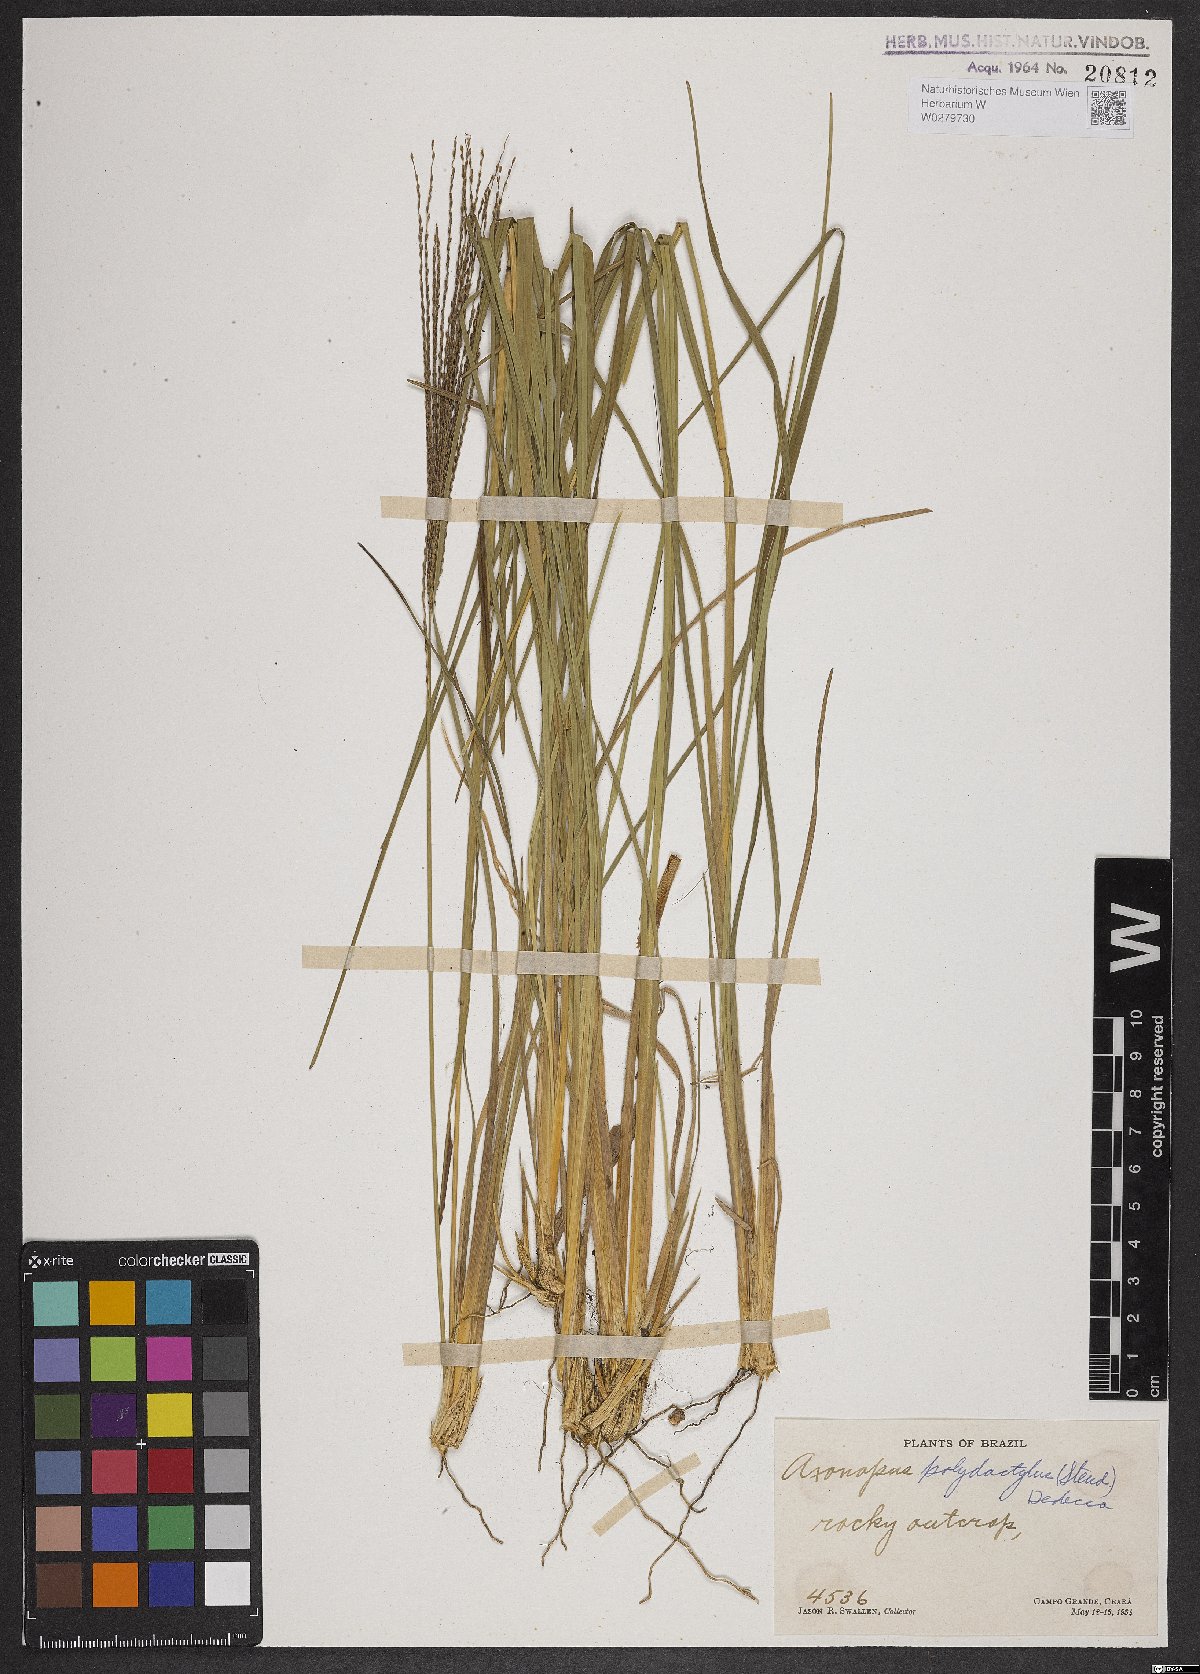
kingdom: Plantae
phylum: Tracheophyta
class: Liliopsida
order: Poales
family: Poaceae
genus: Axonopus
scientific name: Axonopus polydactylus
